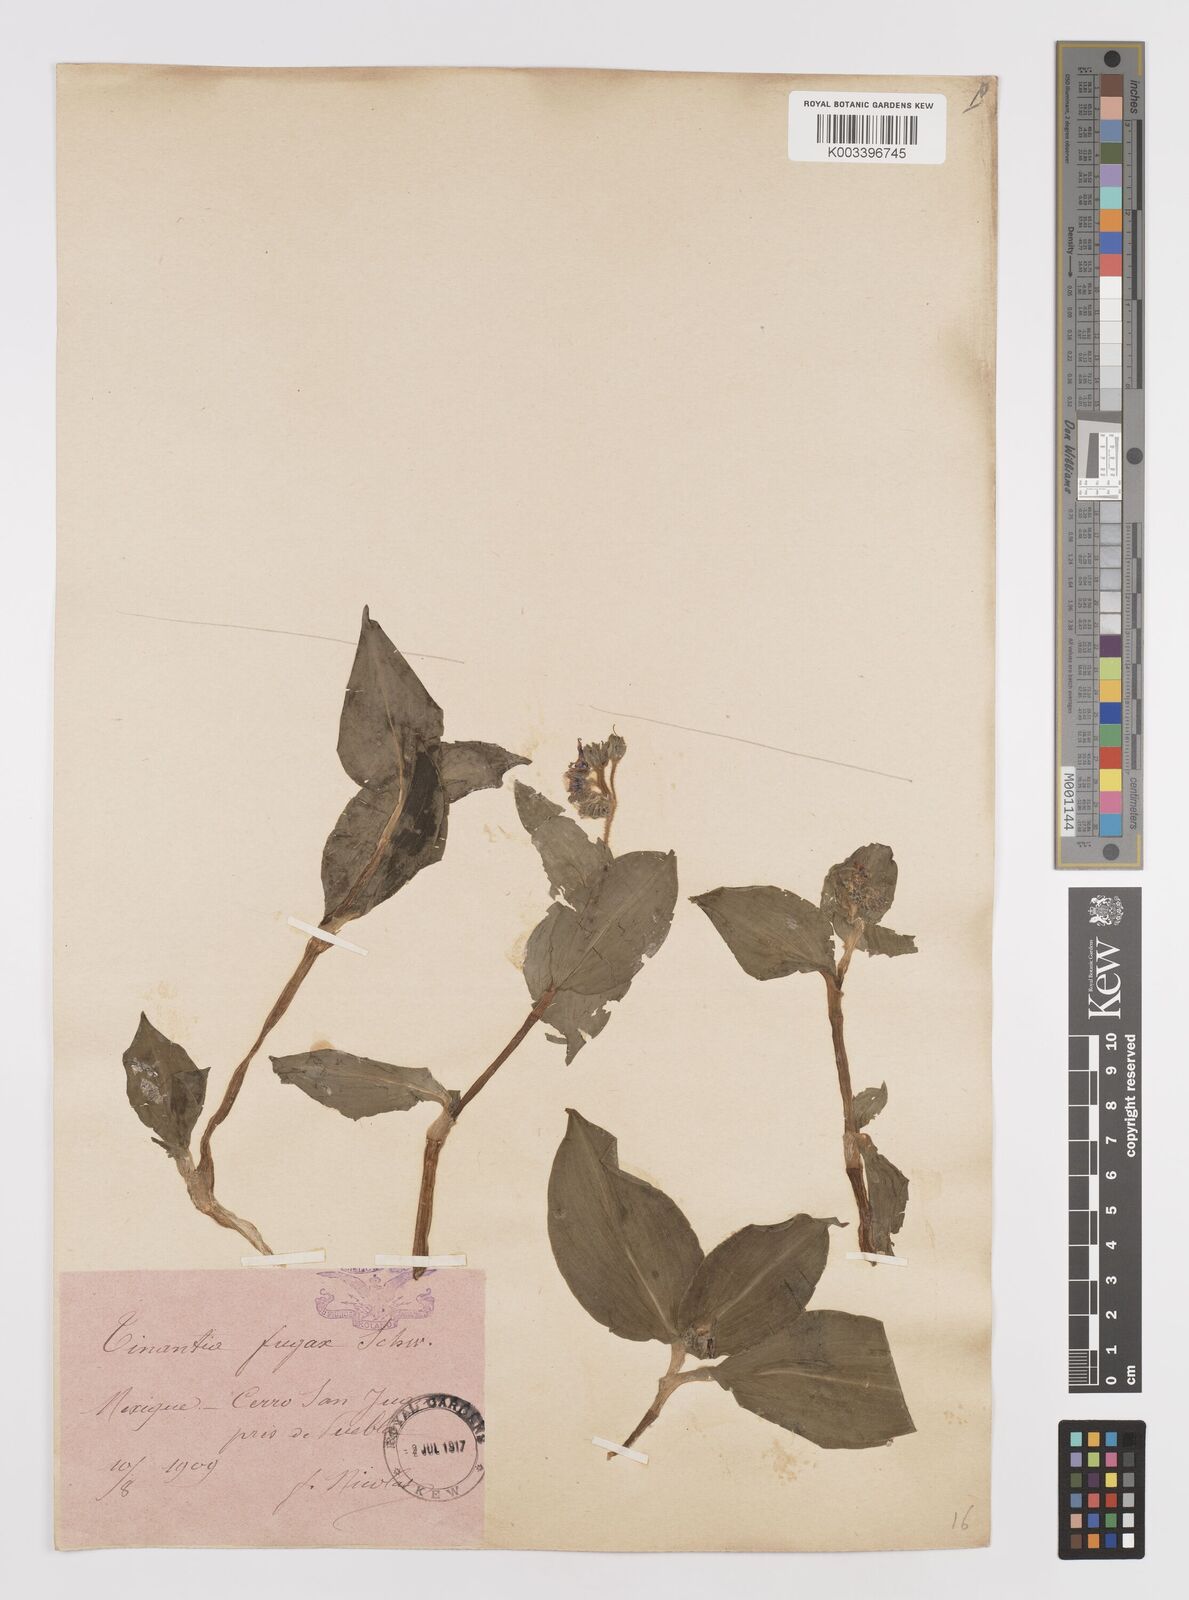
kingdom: Plantae
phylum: Tracheophyta
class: Liliopsida
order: Commelinales
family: Commelinaceae
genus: Tinantia
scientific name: Tinantia erecta
